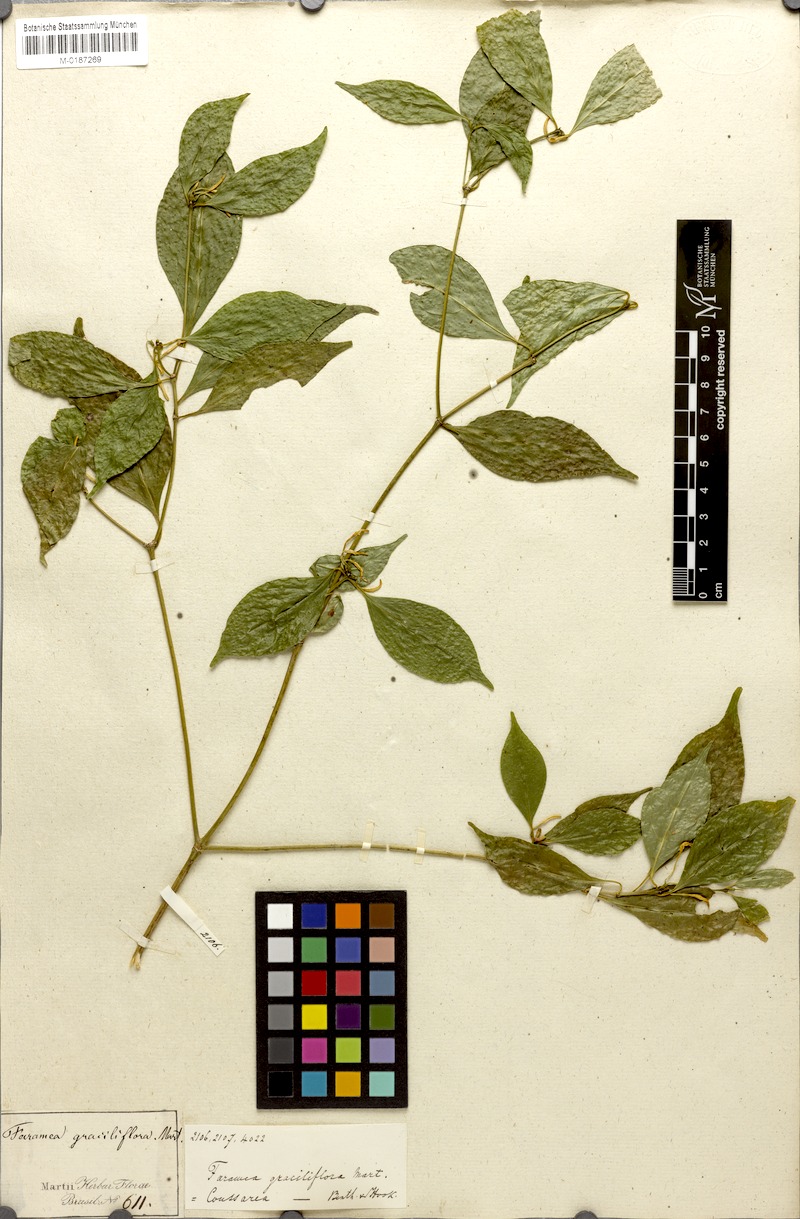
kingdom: Plantae
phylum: Tracheophyta
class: Magnoliopsida
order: Gentianales
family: Rubiaceae
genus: Coussarea
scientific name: Coussarea graciliflora
